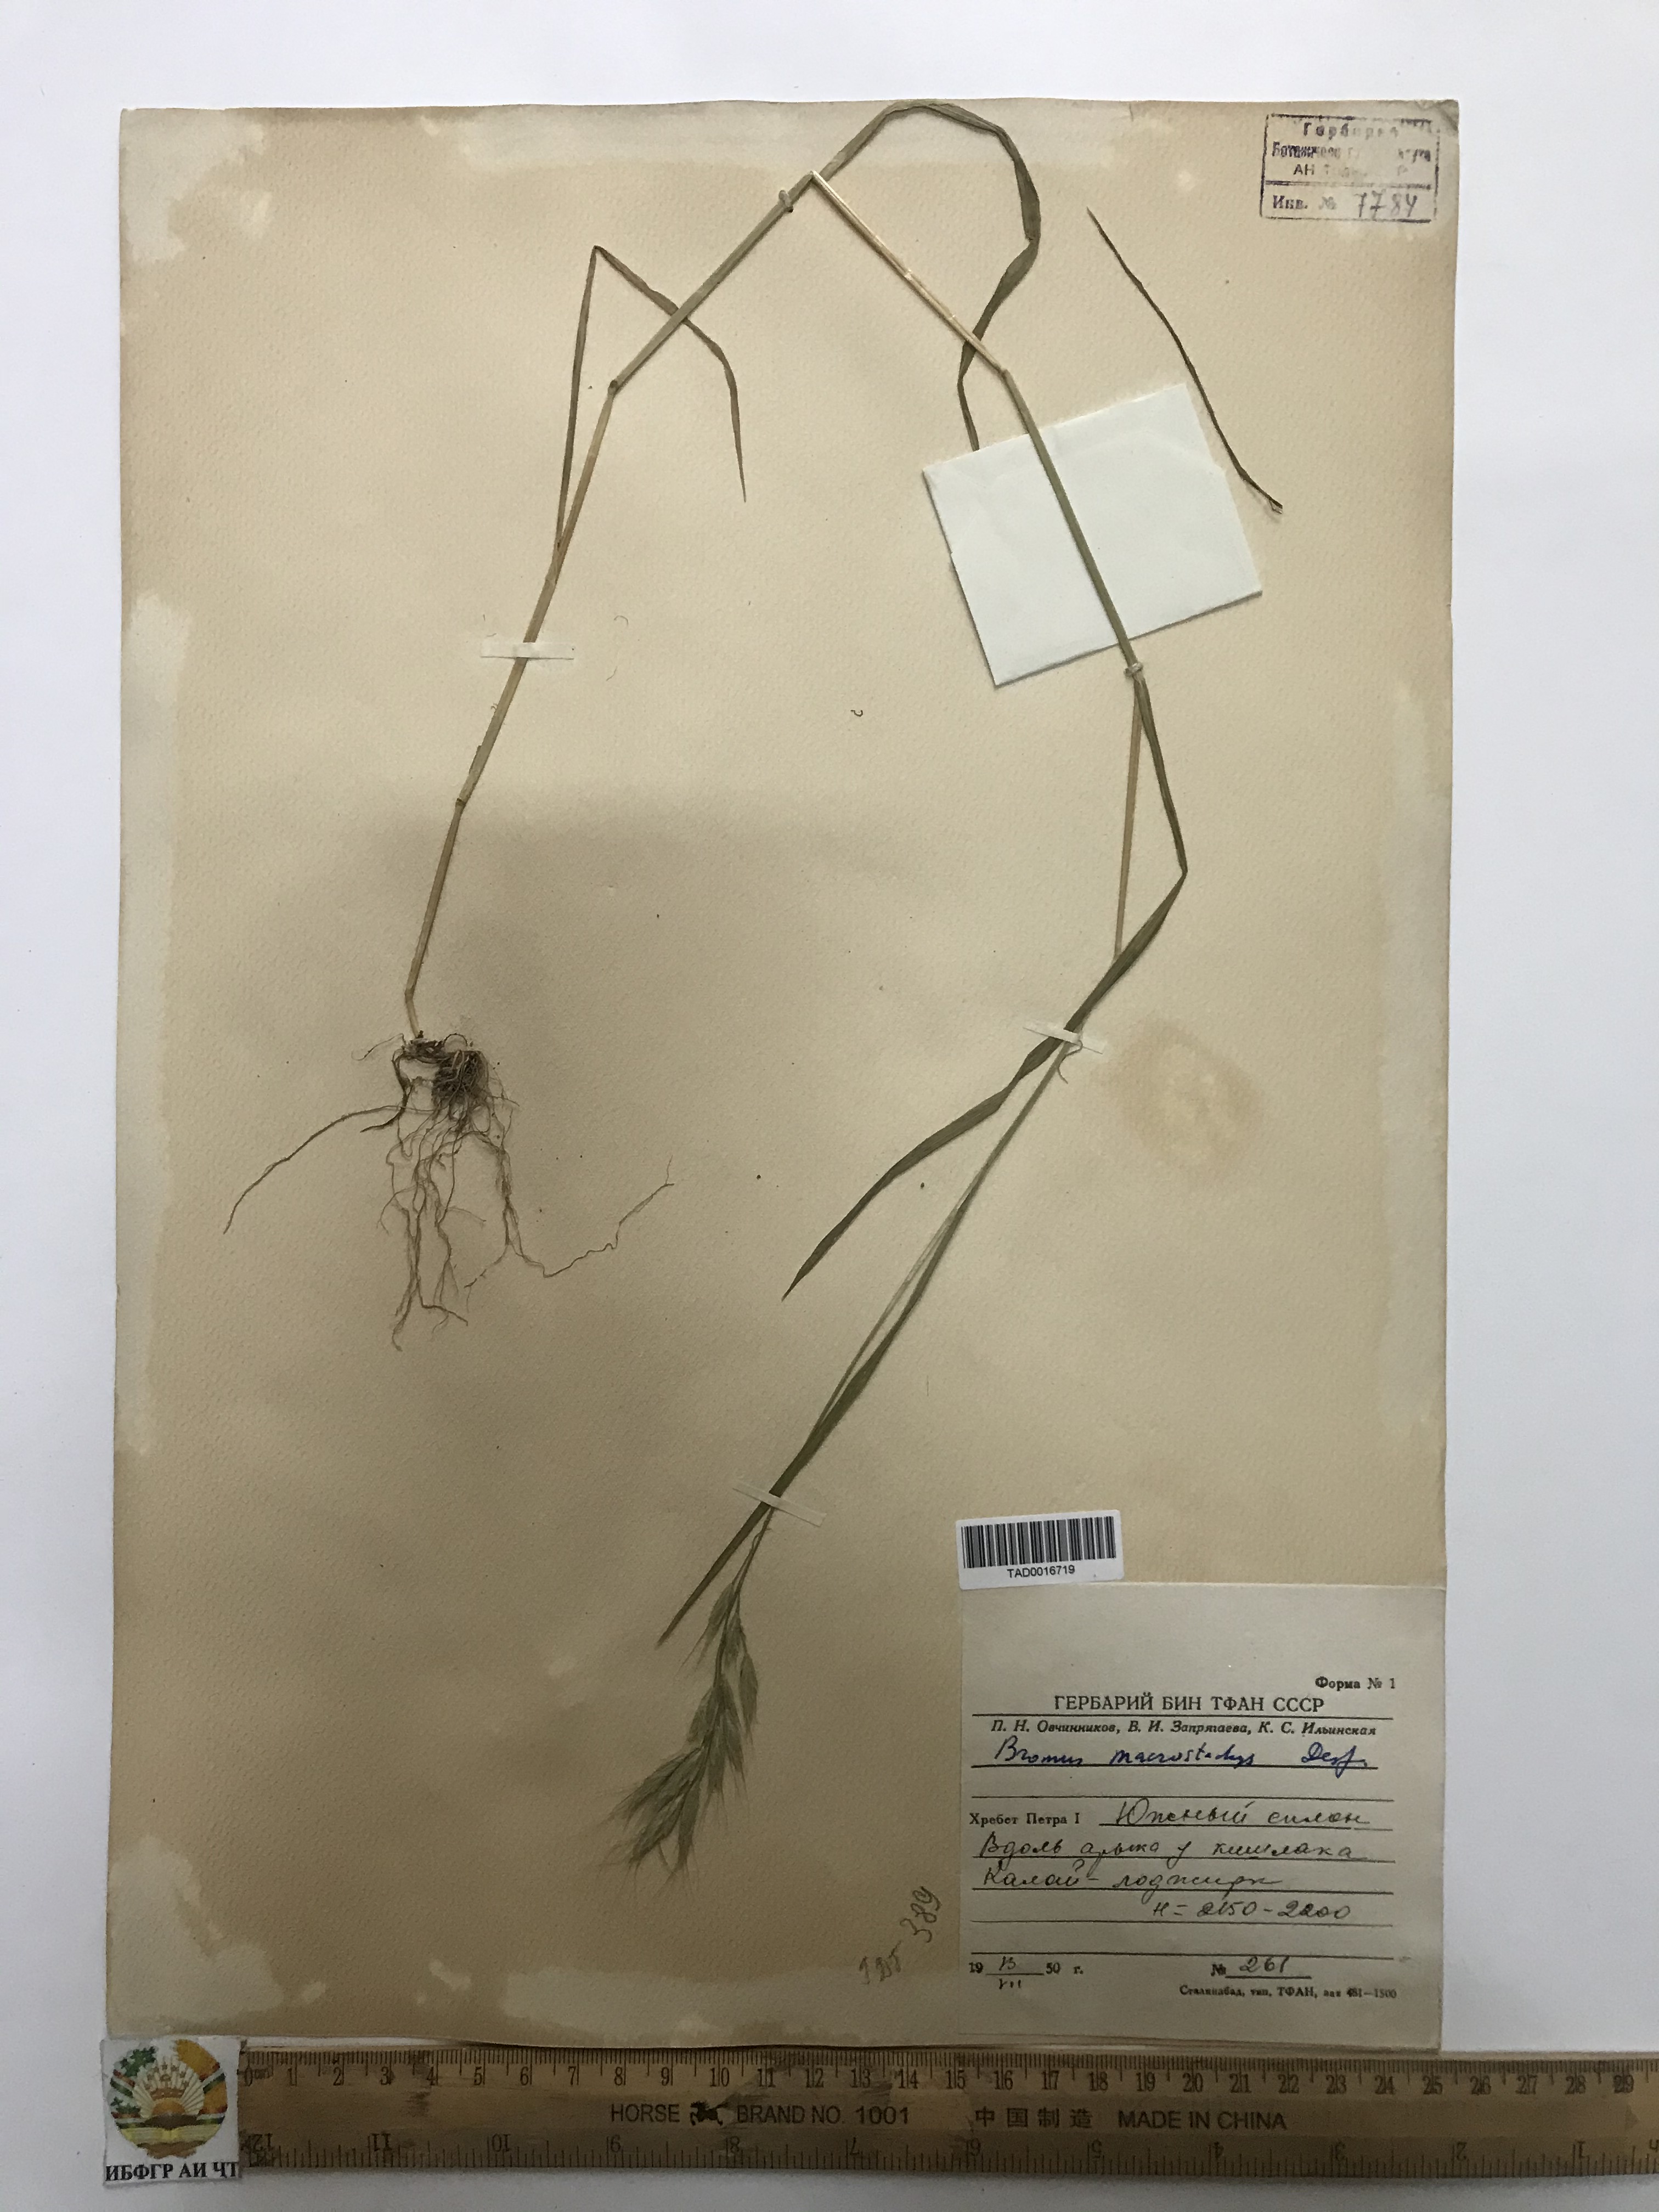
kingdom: Plantae
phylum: Tracheophyta
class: Liliopsida
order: Poales
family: Poaceae
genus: Bromus
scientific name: Bromus lanceolatus
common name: Mediterranean brome
